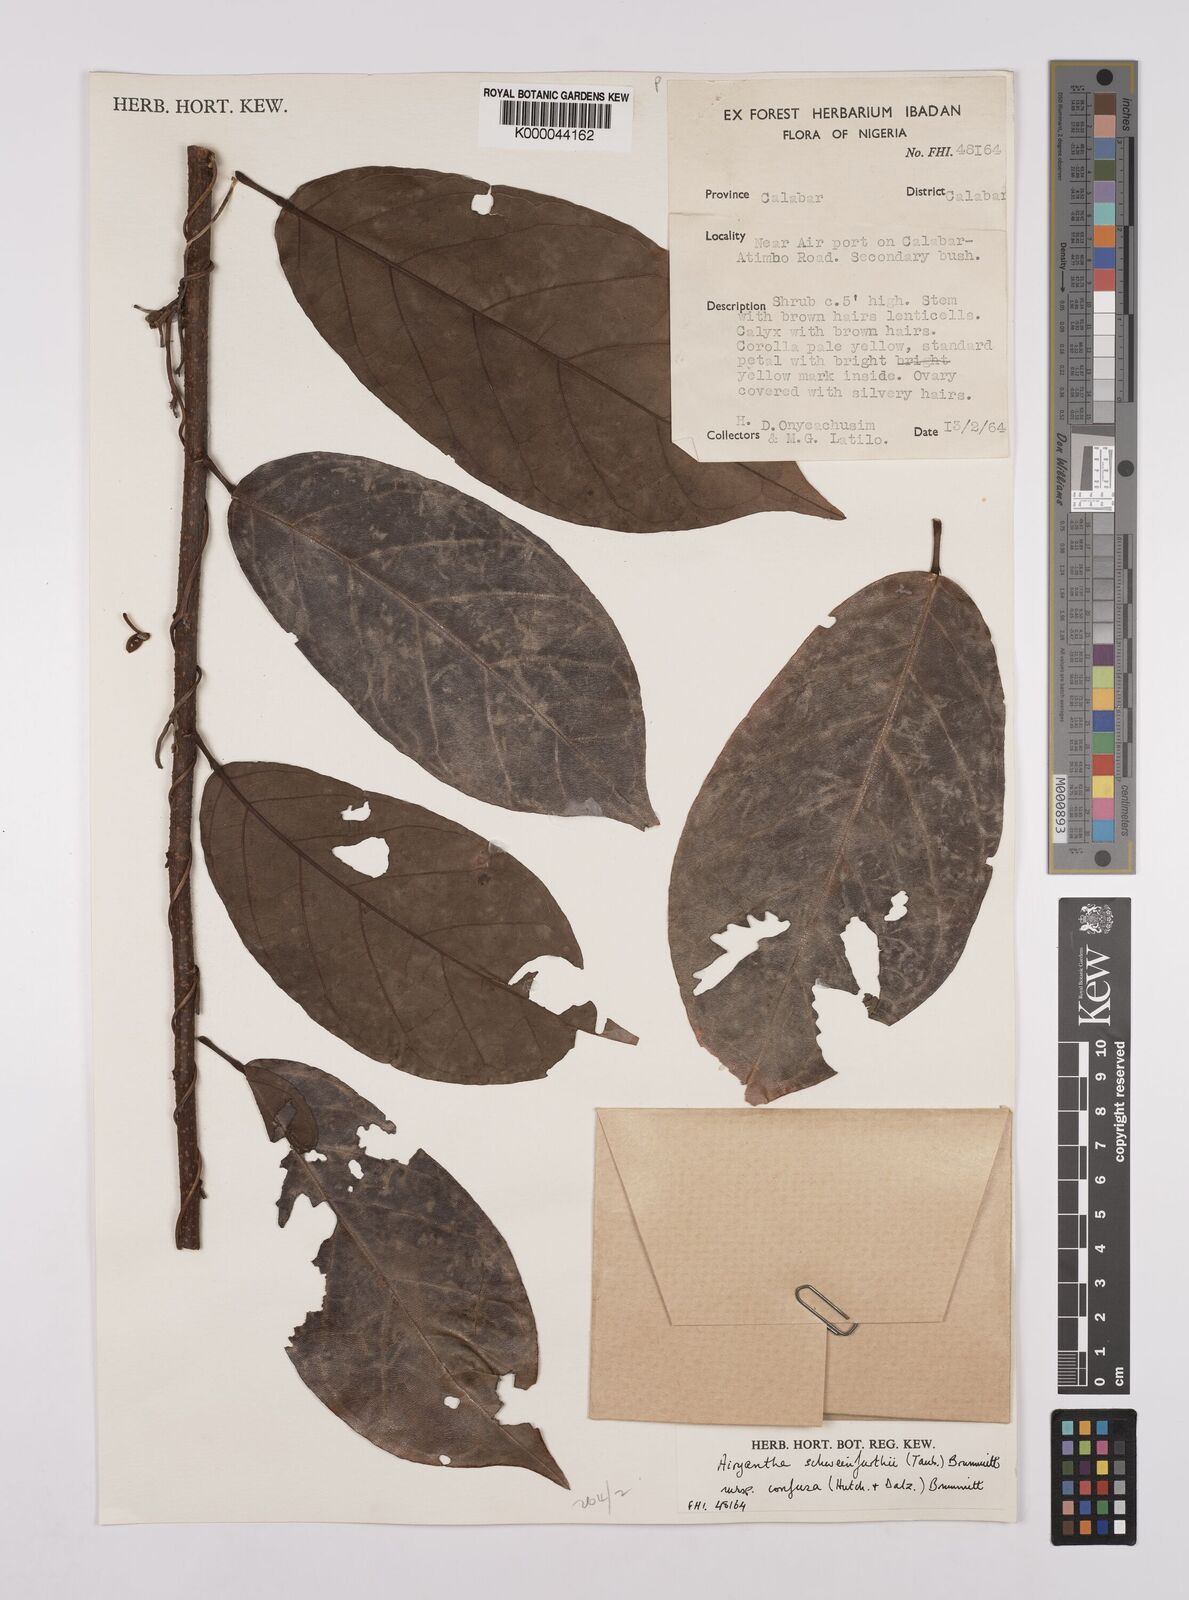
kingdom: Plantae
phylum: Tracheophyta
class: Magnoliopsida
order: Fabales
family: Fabaceae
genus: Airyantha
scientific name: Airyantha schweinfurthii
